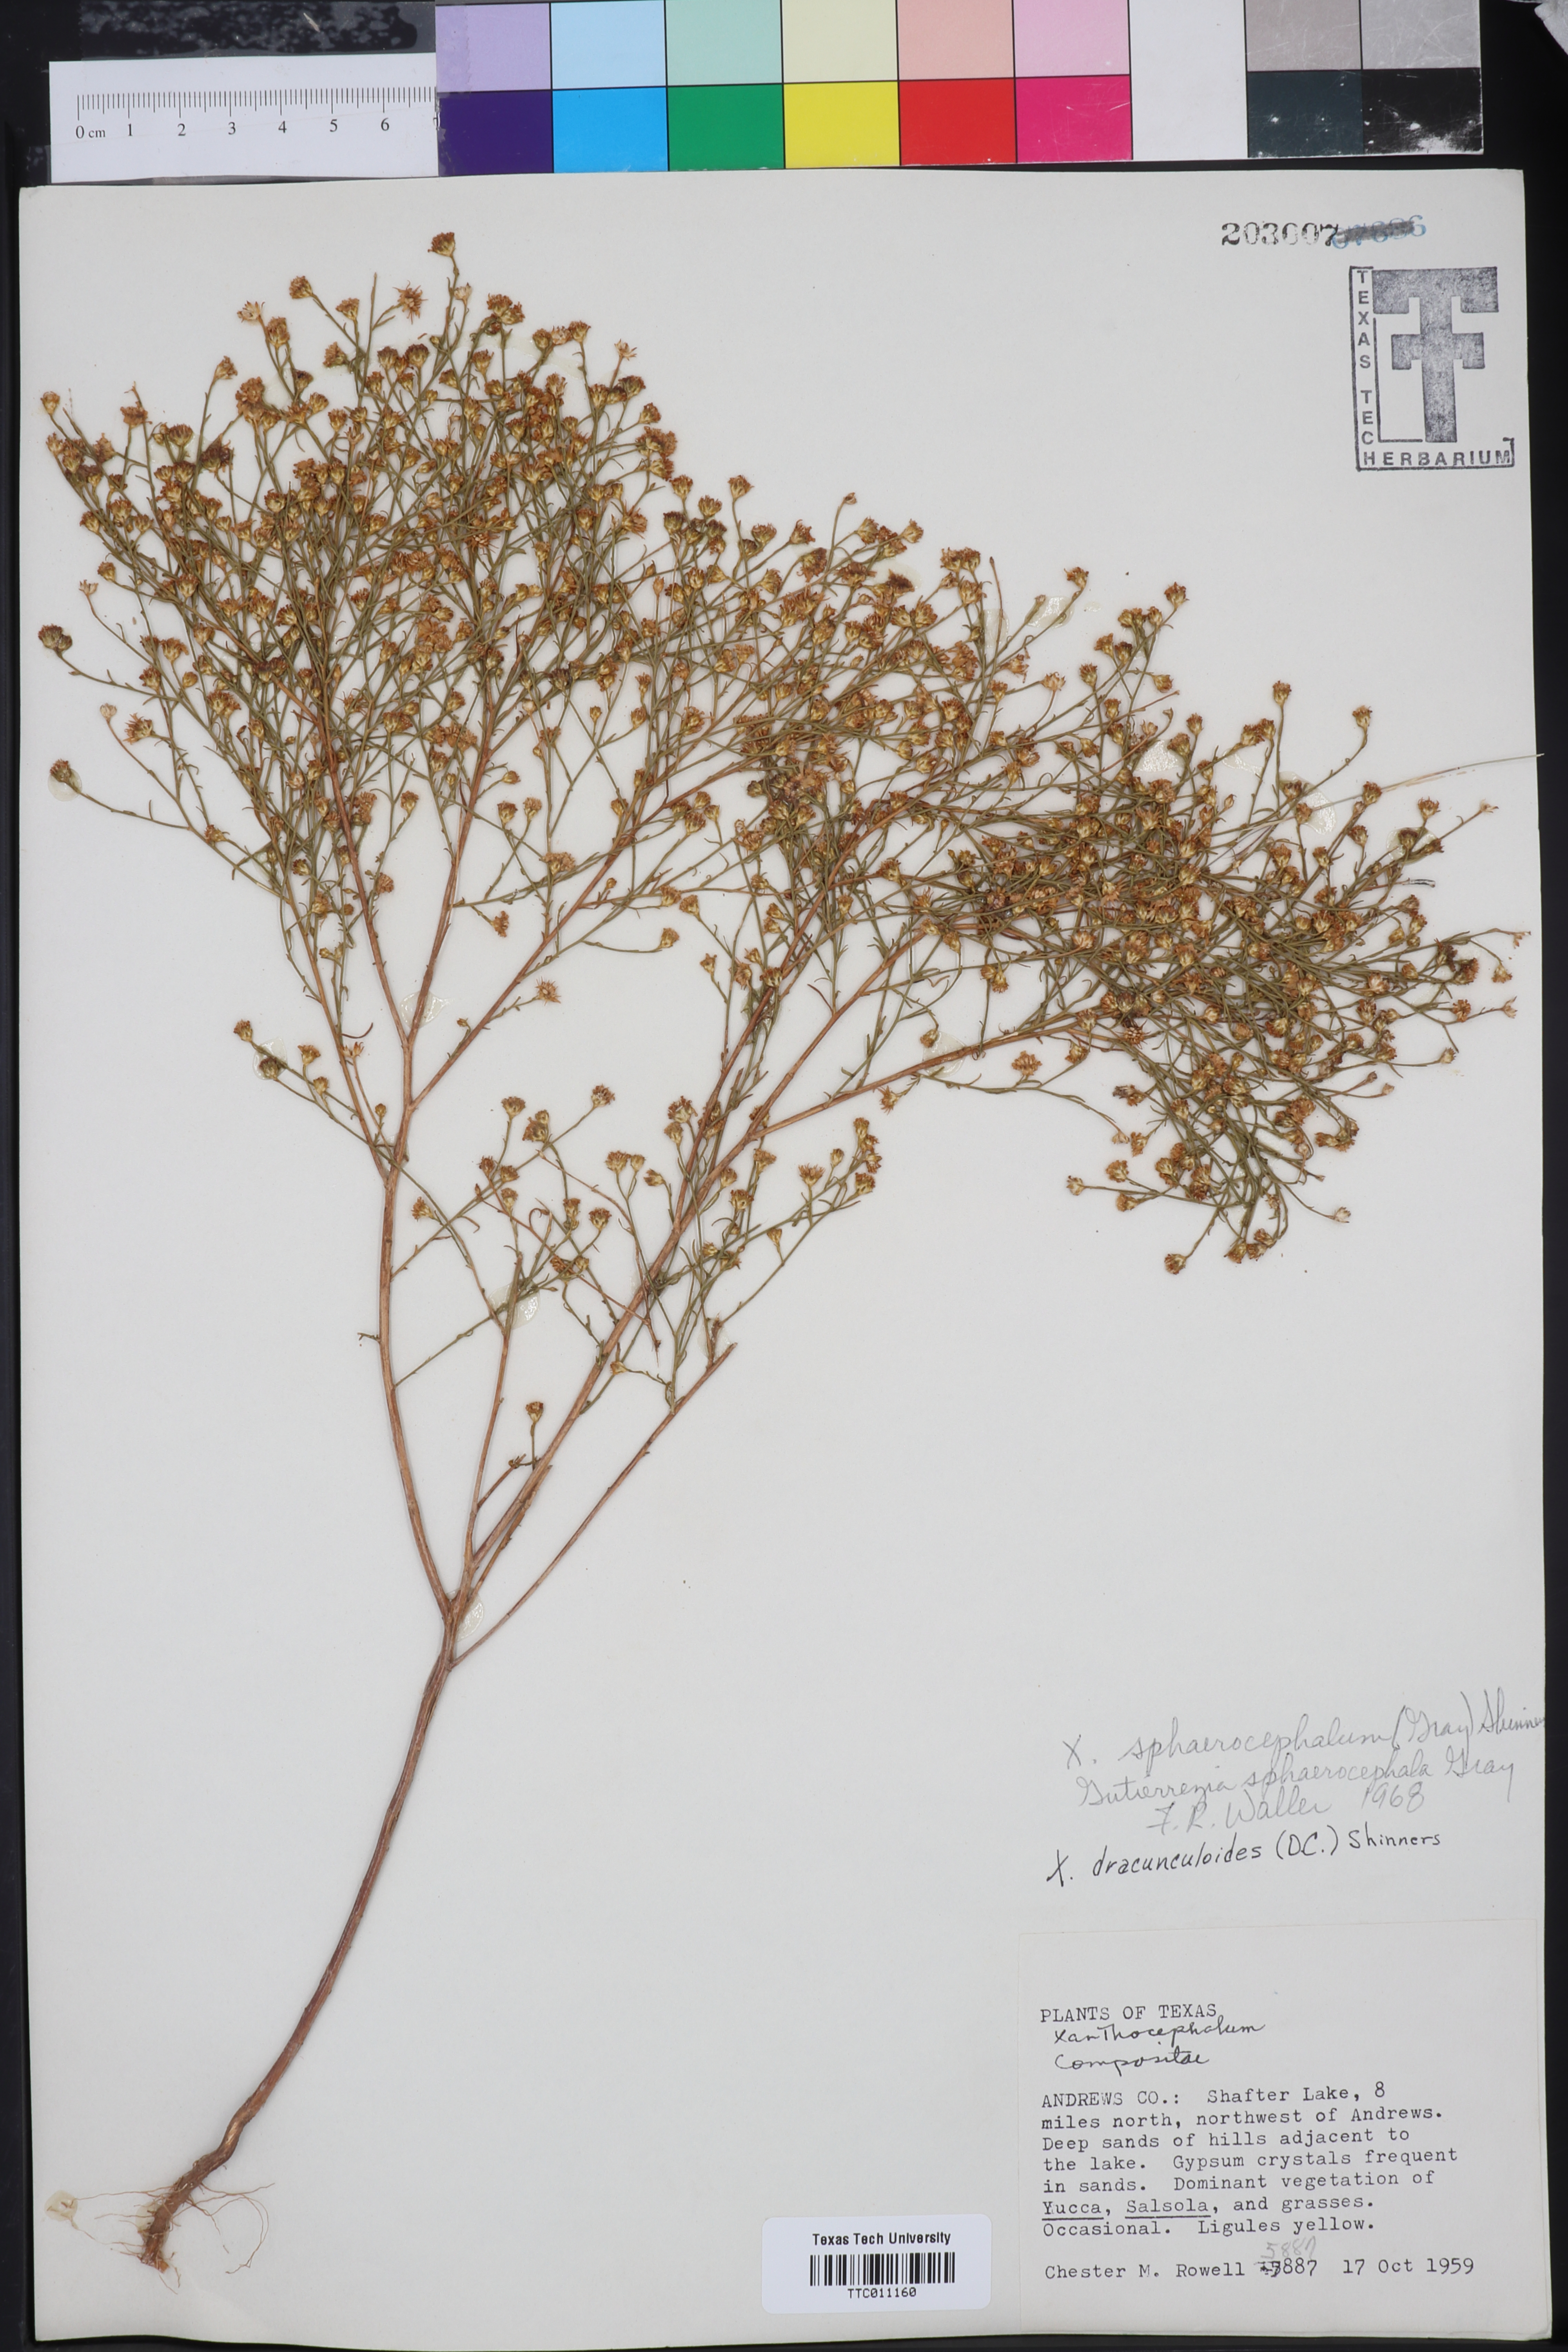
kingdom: Plantae
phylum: Tracheophyta
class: Magnoliopsida
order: Asterales
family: Asteraceae
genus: Gutierrezia
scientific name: Gutierrezia sphaerocephala
